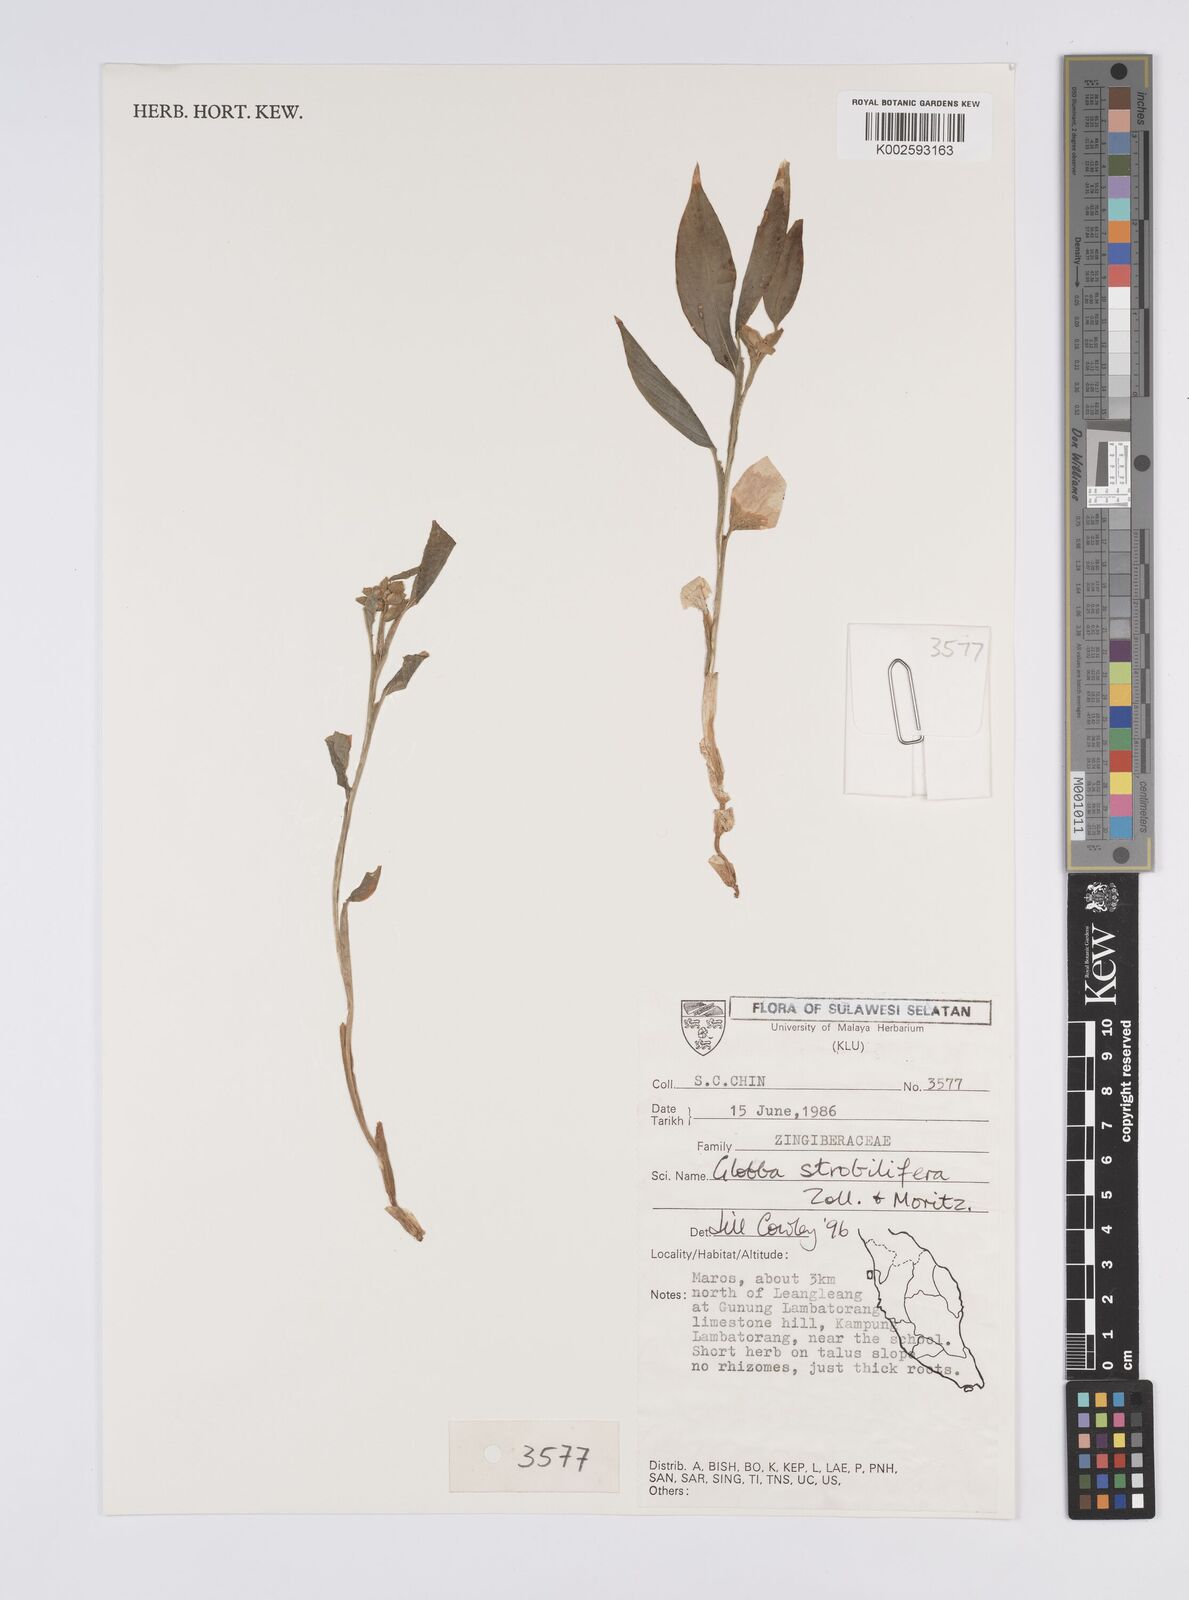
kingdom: Plantae
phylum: Tracheophyta
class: Liliopsida
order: Zingiberales
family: Zingiberaceae
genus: Globba
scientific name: Globba marantina
